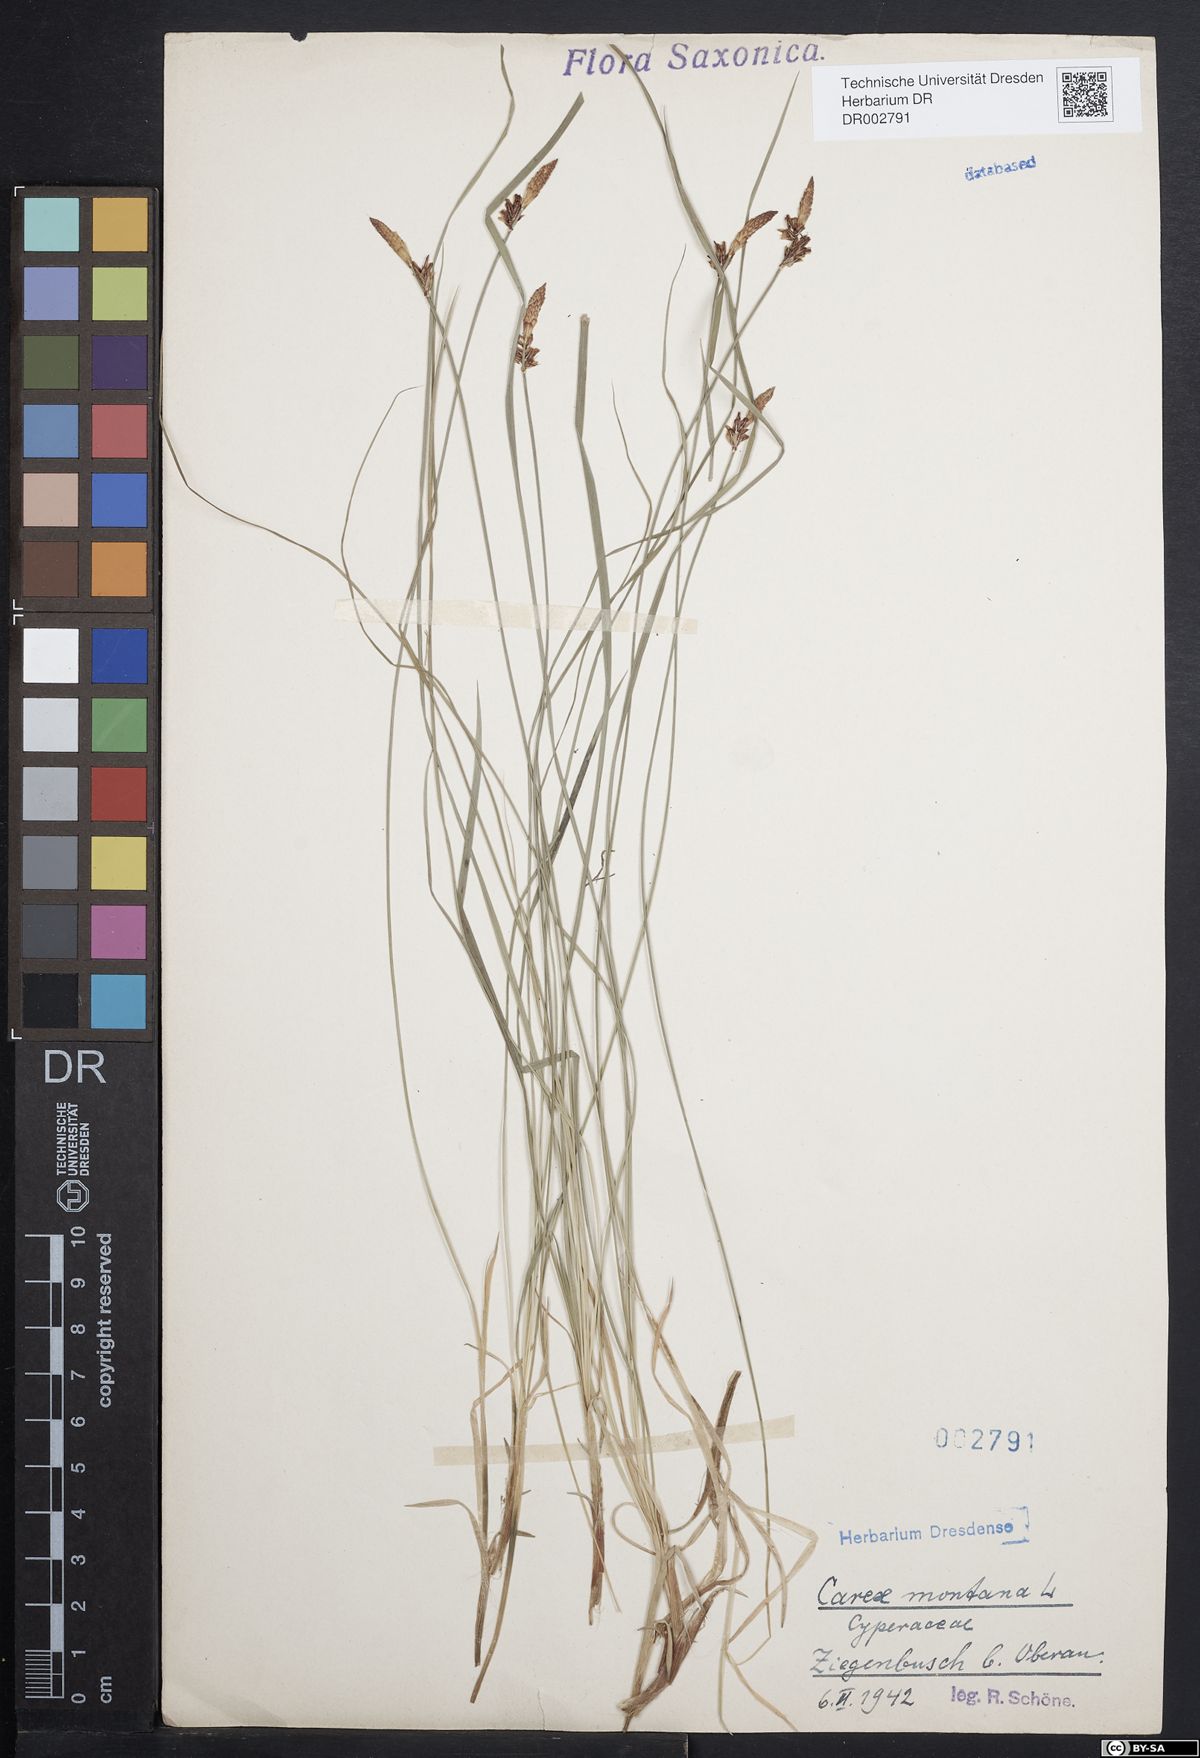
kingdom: Plantae
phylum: Tracheophyta
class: Liliopsida
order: Poales
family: Cyperaceae
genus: Carex
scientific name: Carex montana
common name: Soft-leaved sedge
